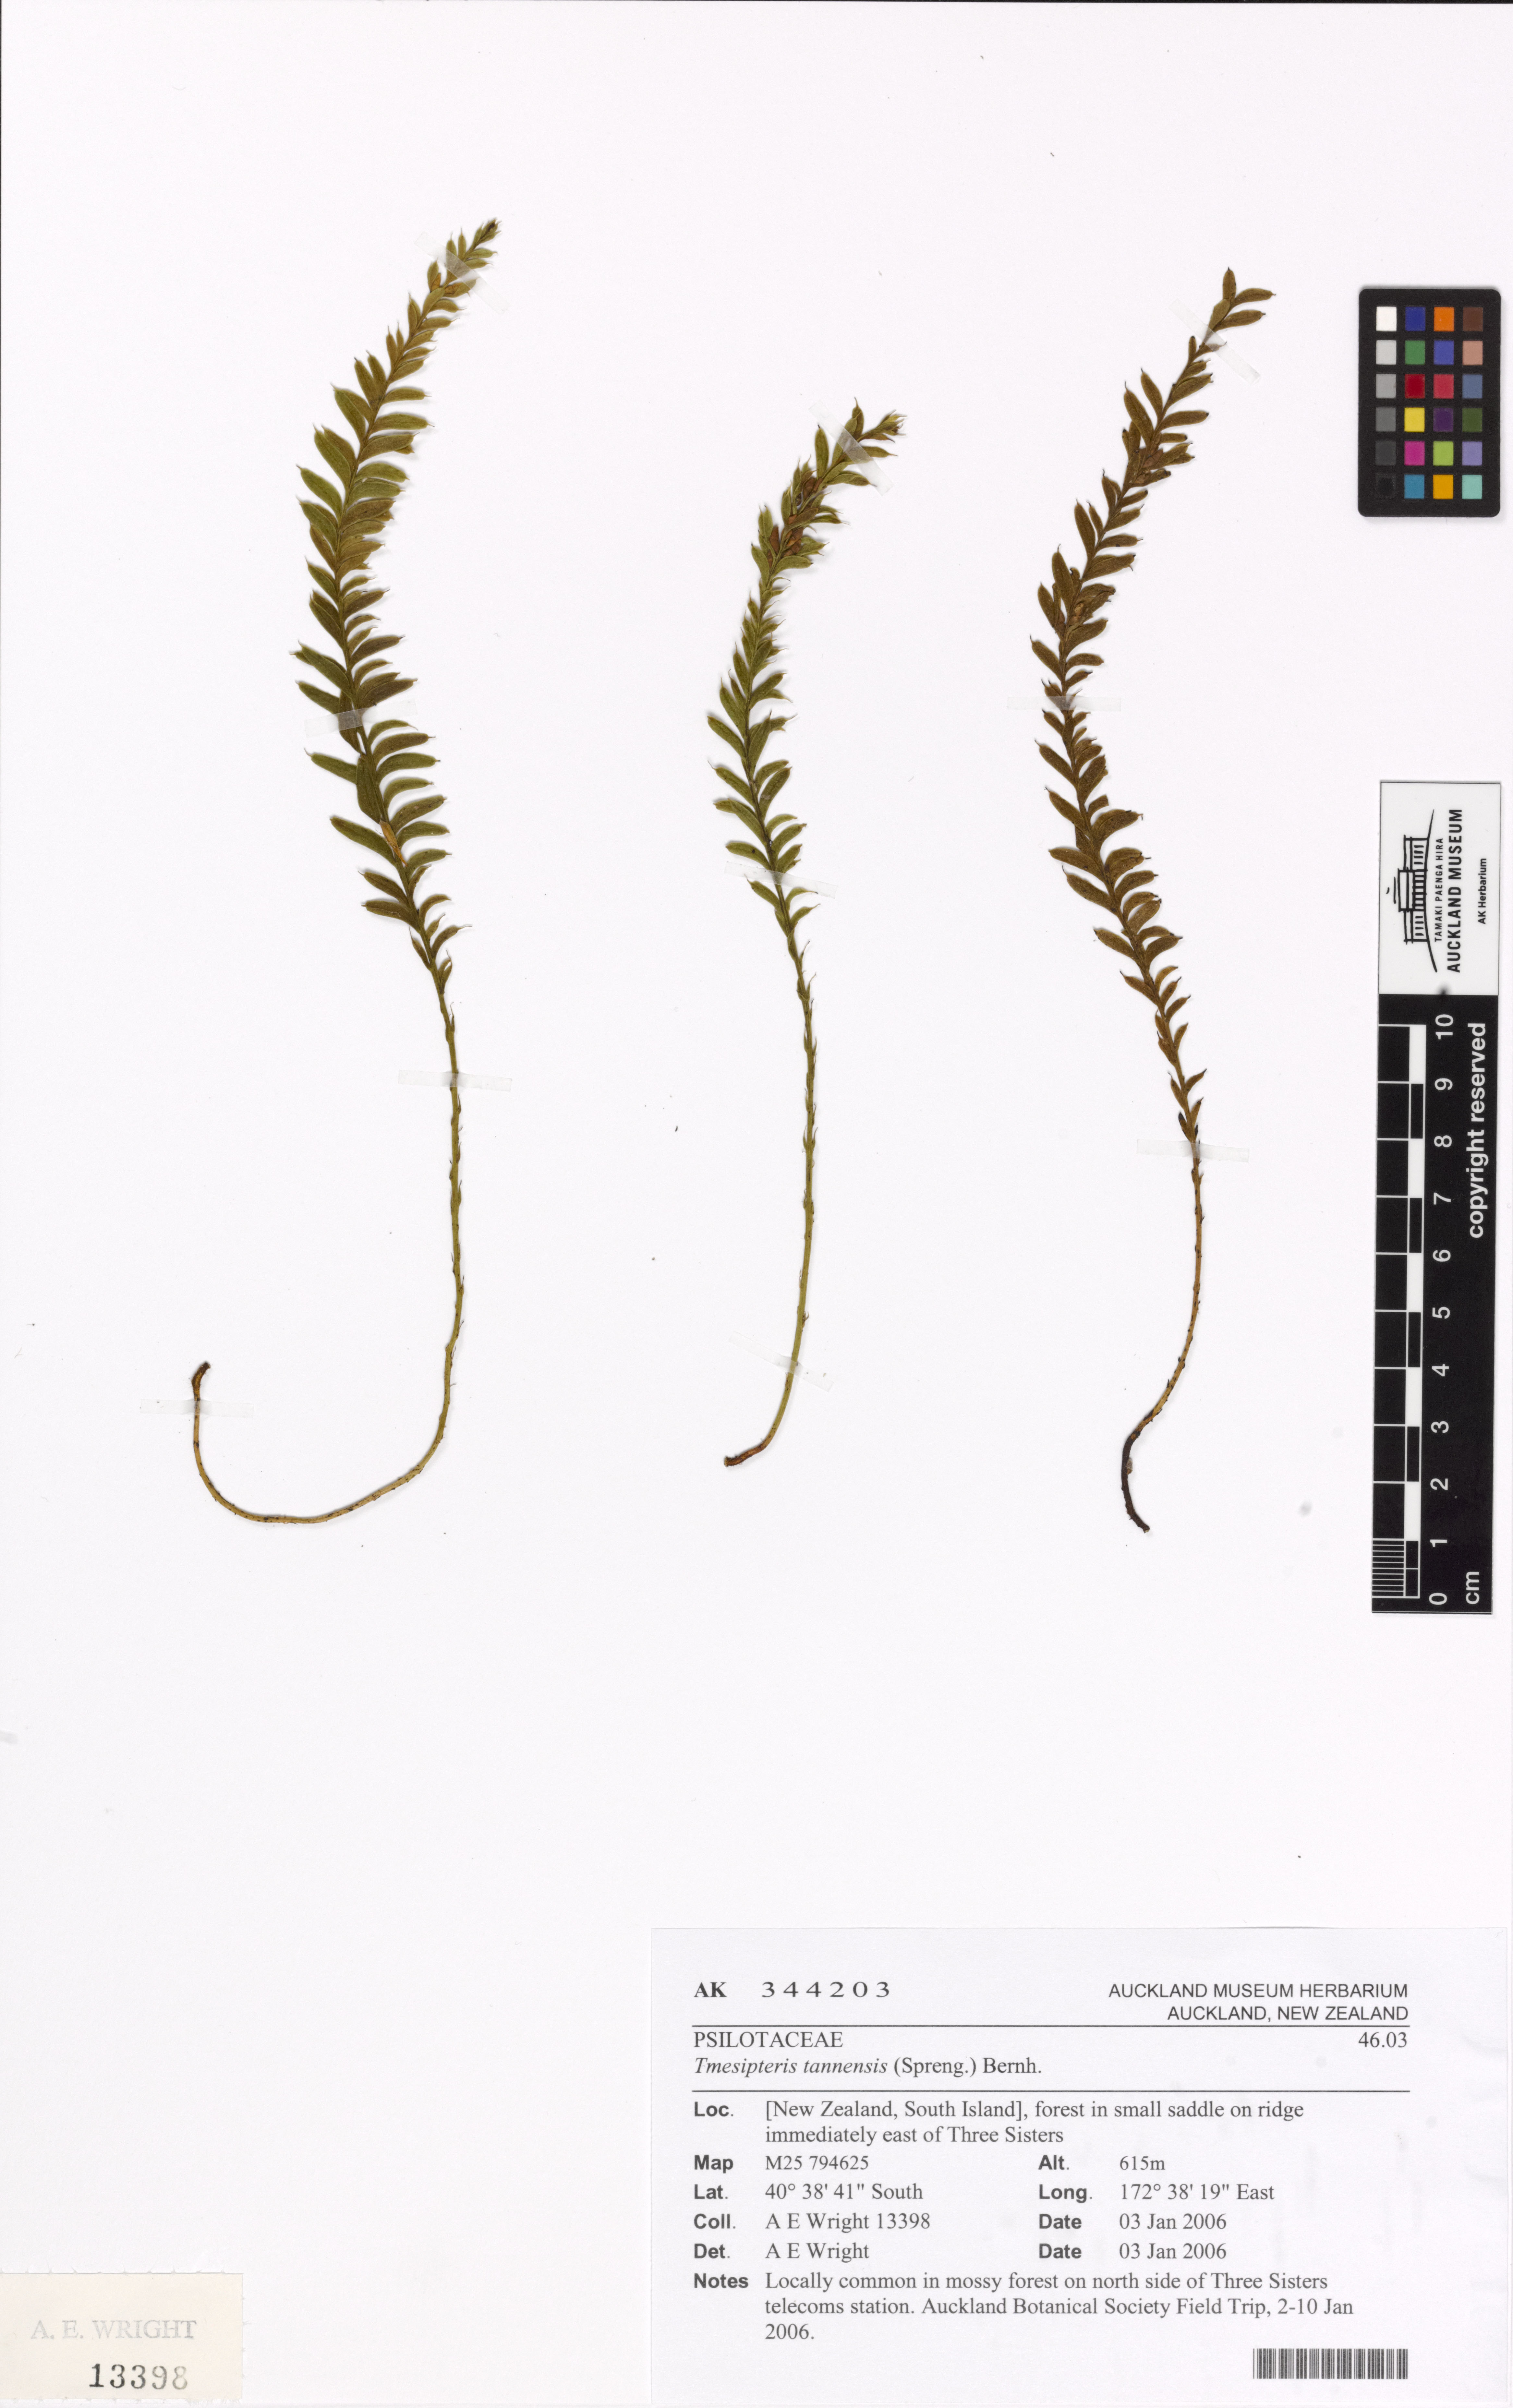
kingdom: Plantae
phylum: Tracheophyta
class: Polypodiopsida
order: Psilotales
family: Psilotaceae
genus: Tmesipteris
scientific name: Tmesipteris tannensis
